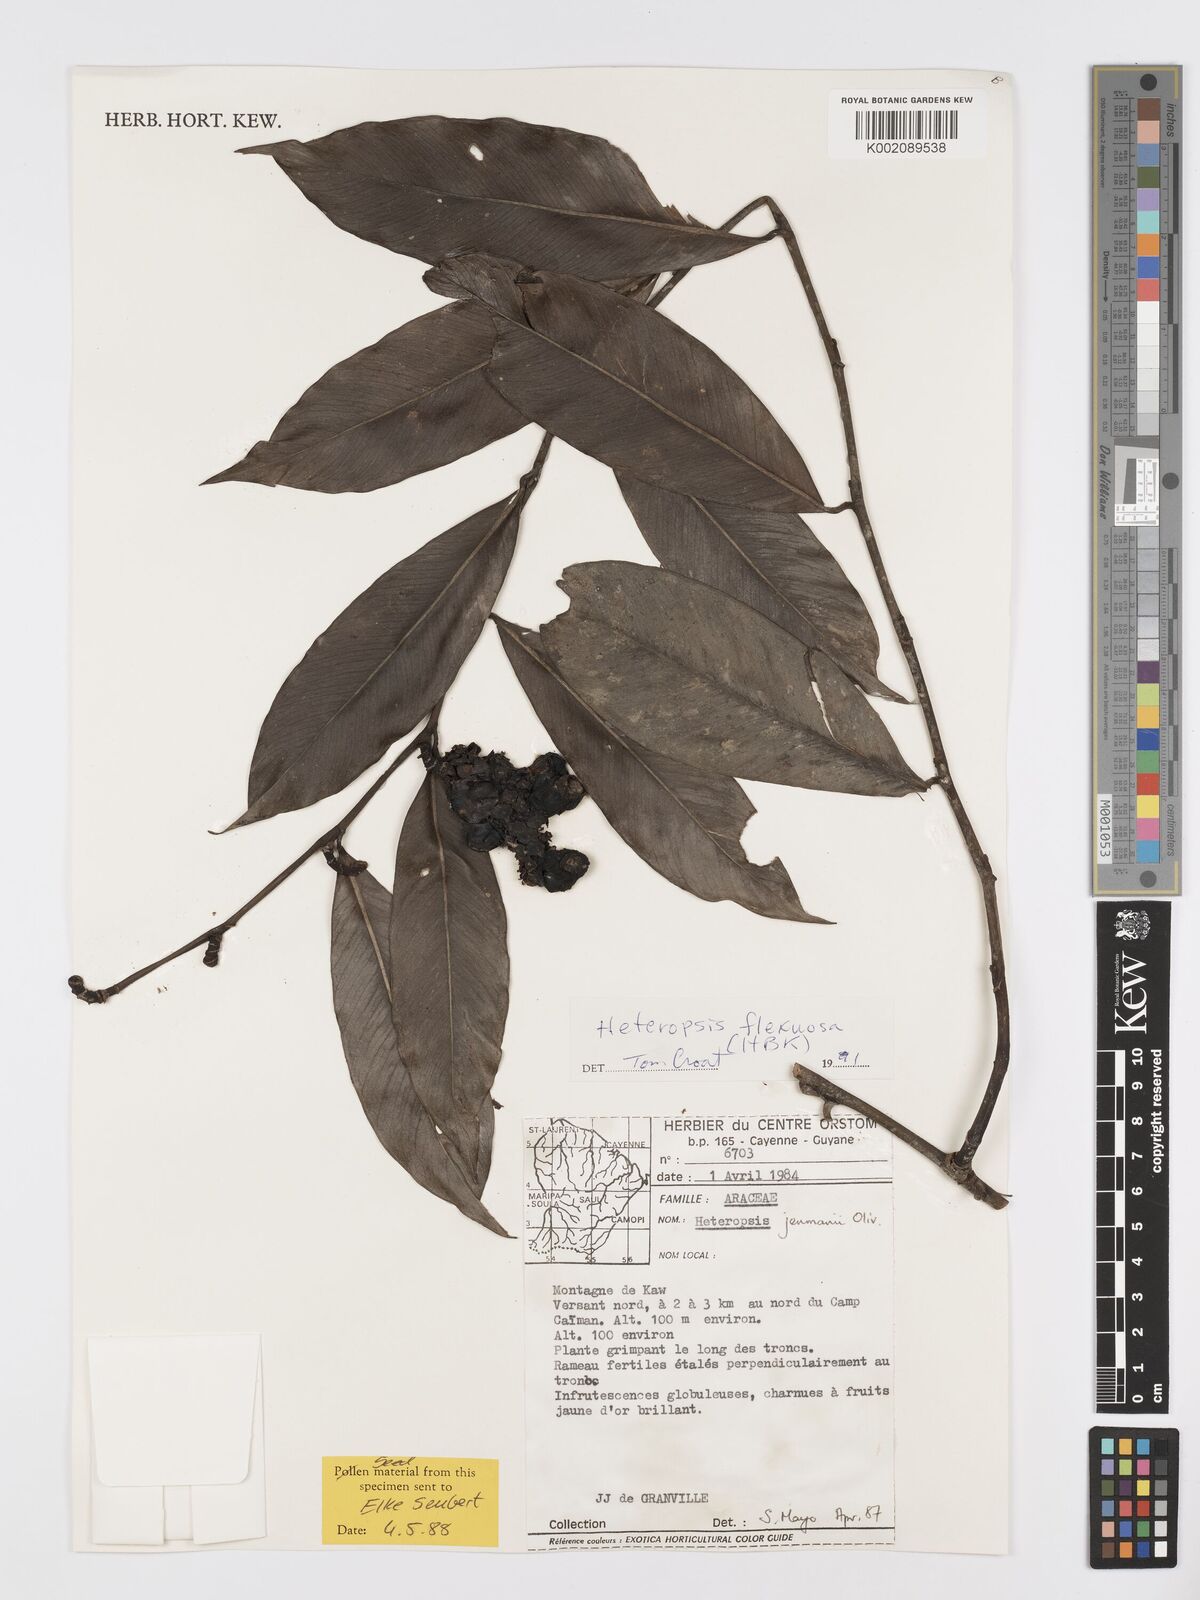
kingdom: Plantae
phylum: Tracheophyta
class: Liliopsida
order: Alismatales
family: Araceae
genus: Heteropsis
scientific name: Heteropsis flexuosa
